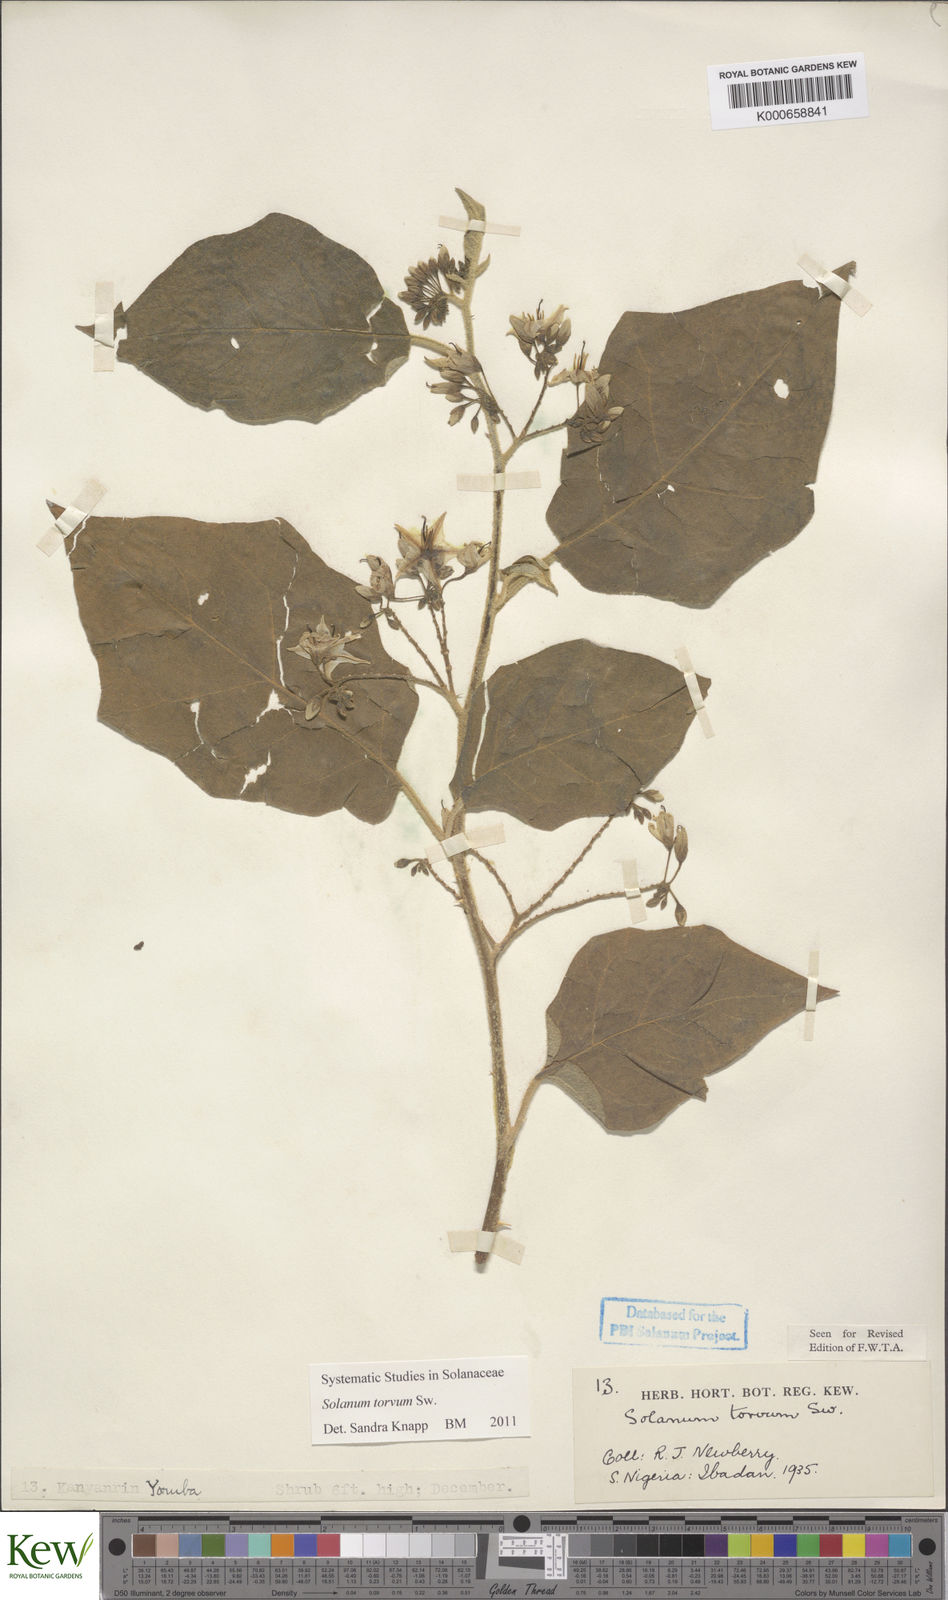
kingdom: Plantae
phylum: Tracheophyta
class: Magnoliopsida
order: Solanales
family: Solanaceae
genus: Solanum
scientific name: Solanum torvum
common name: Turkey berry
